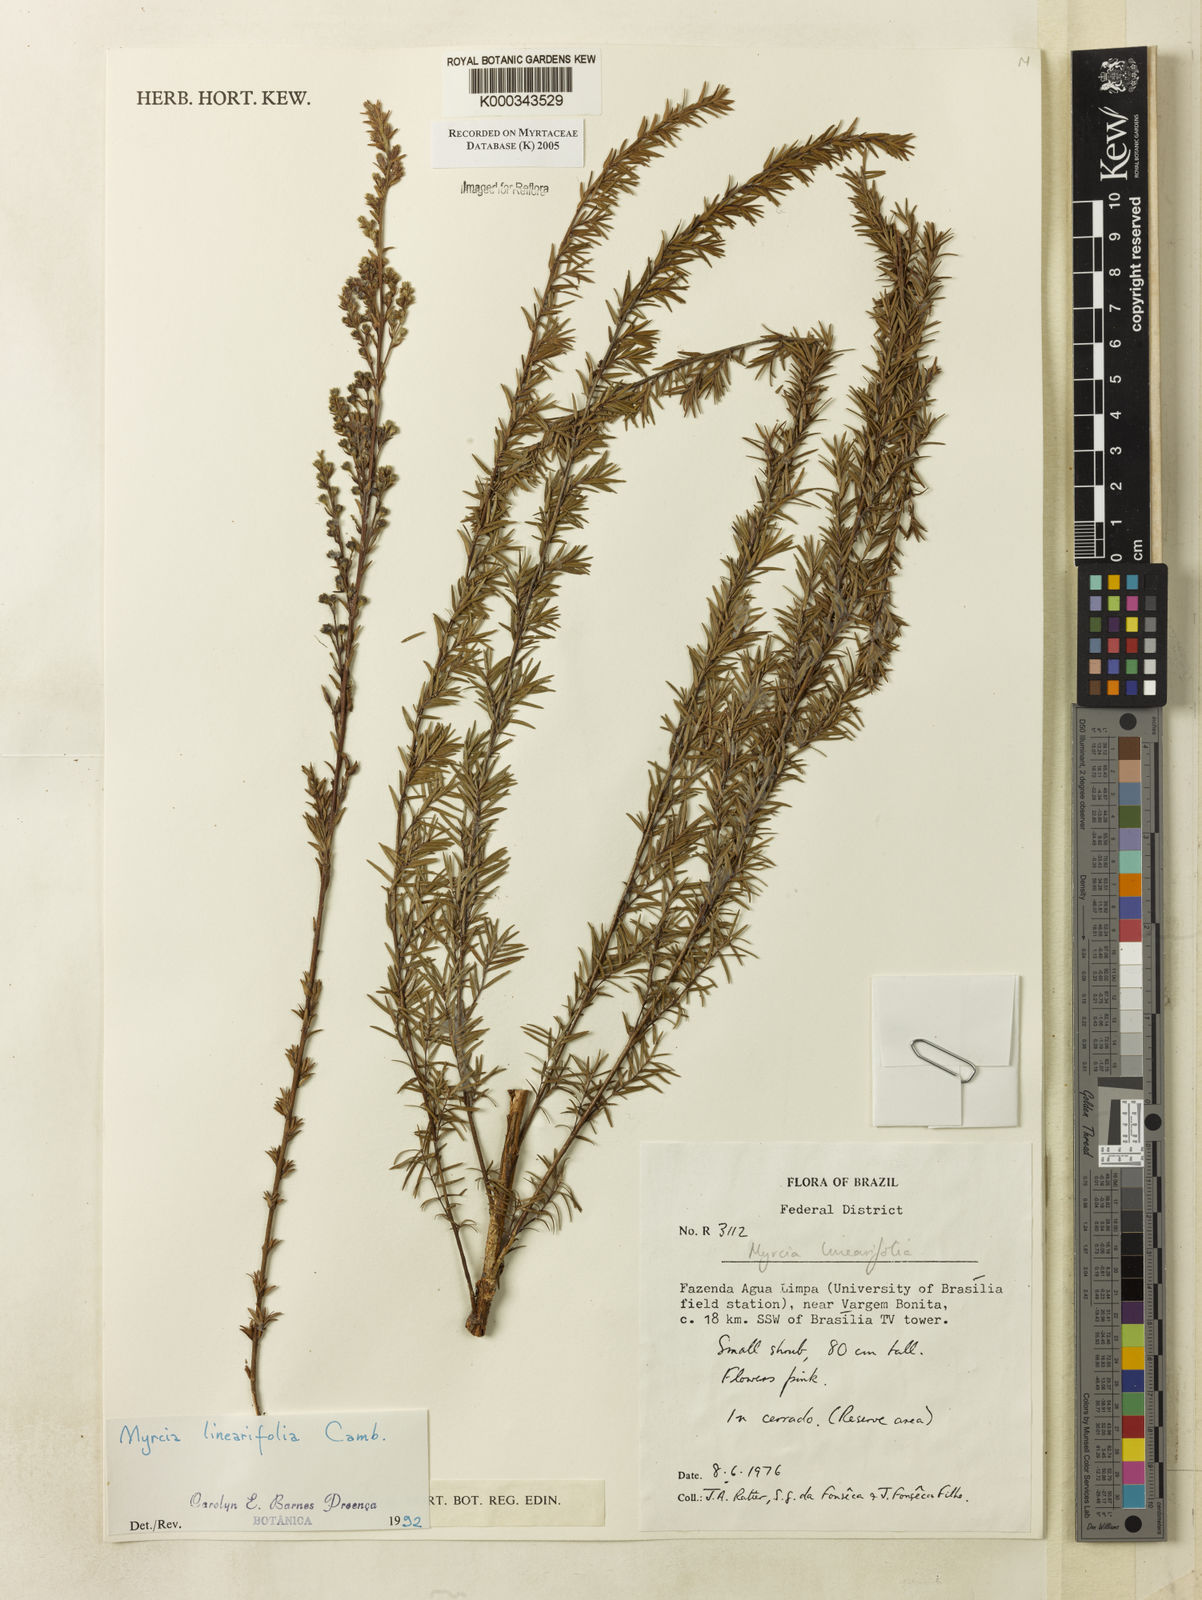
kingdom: Plantae
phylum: Tracheophyta
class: Magnoliopsida
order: Myrtales
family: Myrtaceae
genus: Myrcia
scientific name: Myrcia linearifolia
